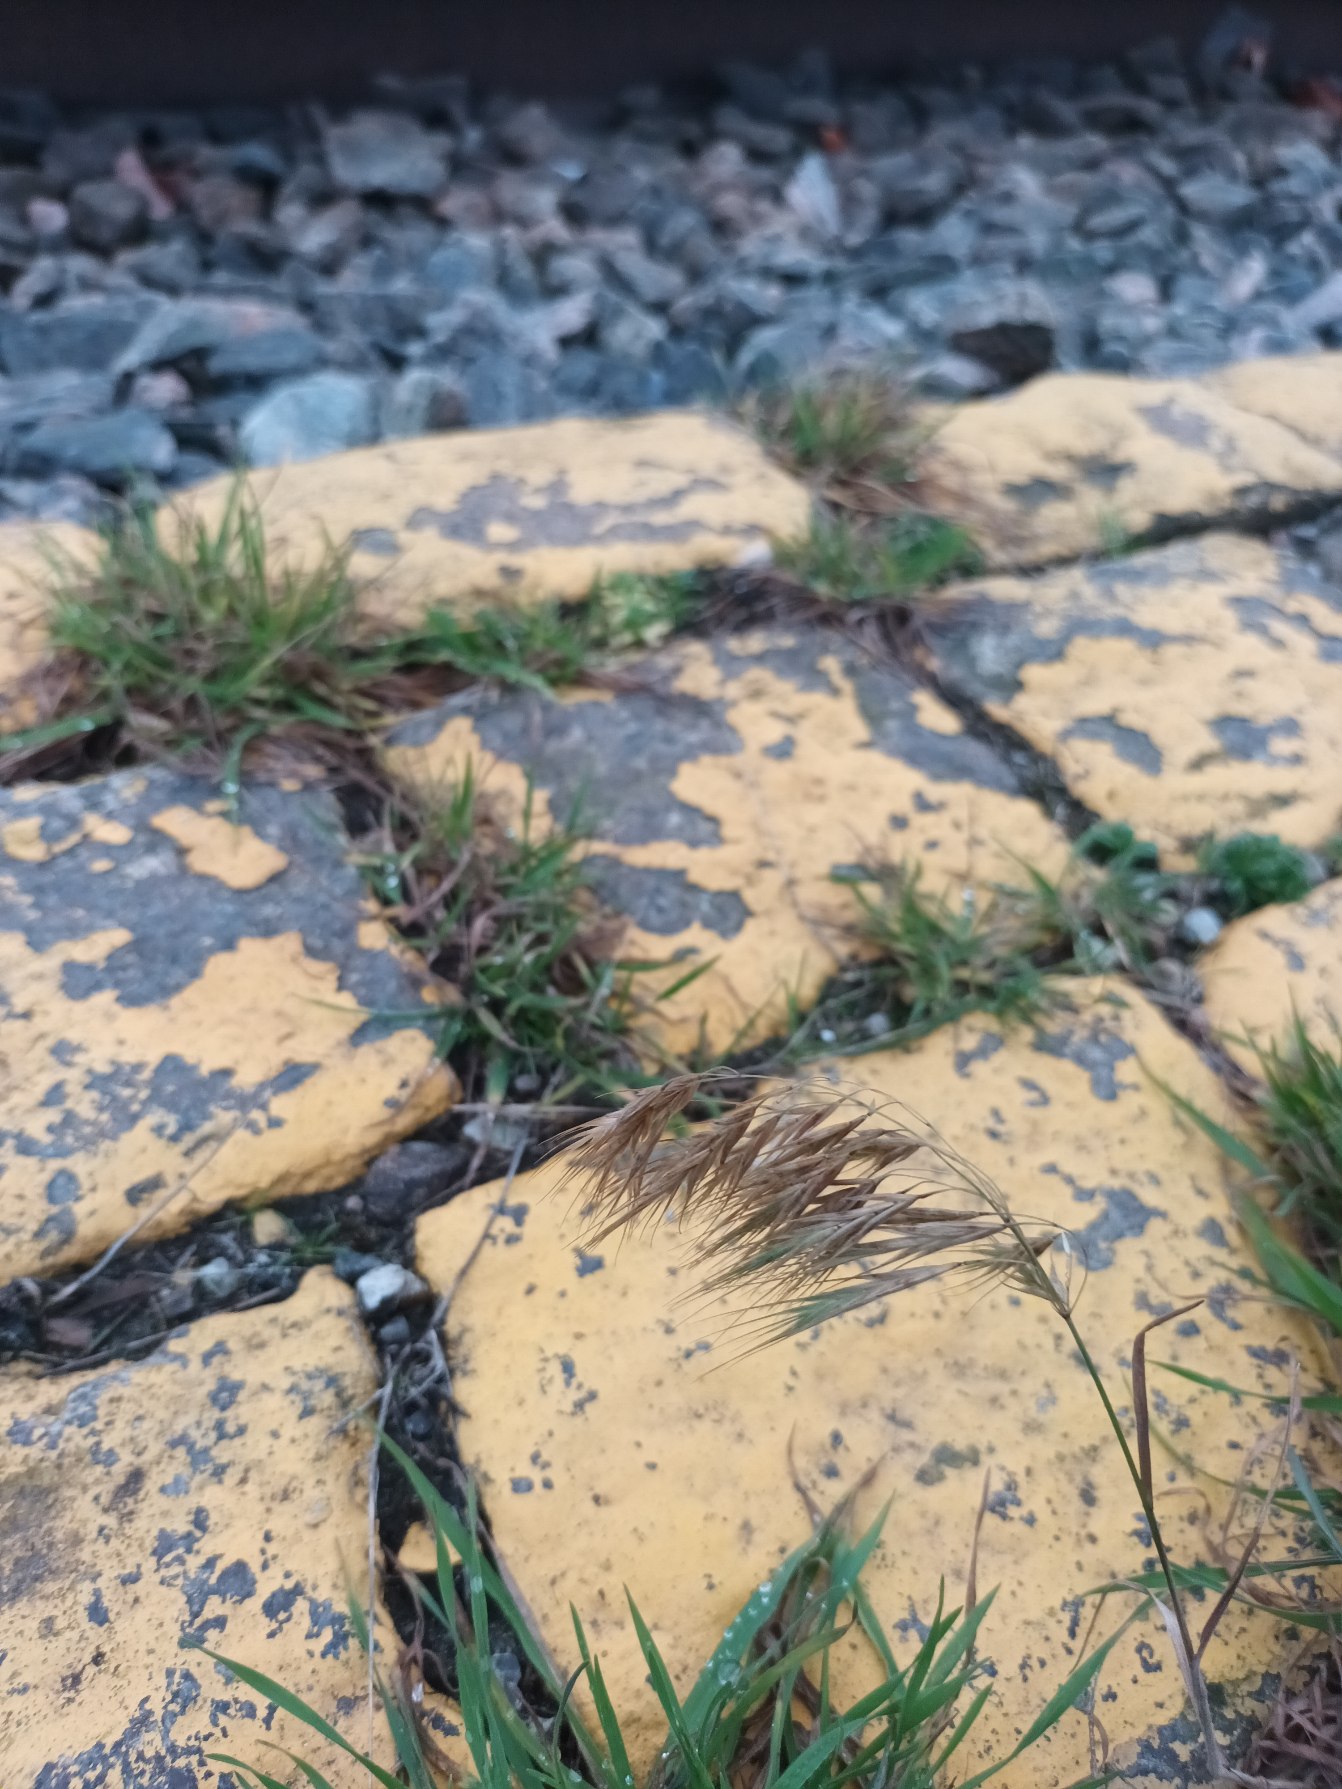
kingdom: Plantae
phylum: Tracheophyta
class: Liliopsida
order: Poales
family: Poaceae
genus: Bromus
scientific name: Bromus tectorum
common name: Tag-hejre
